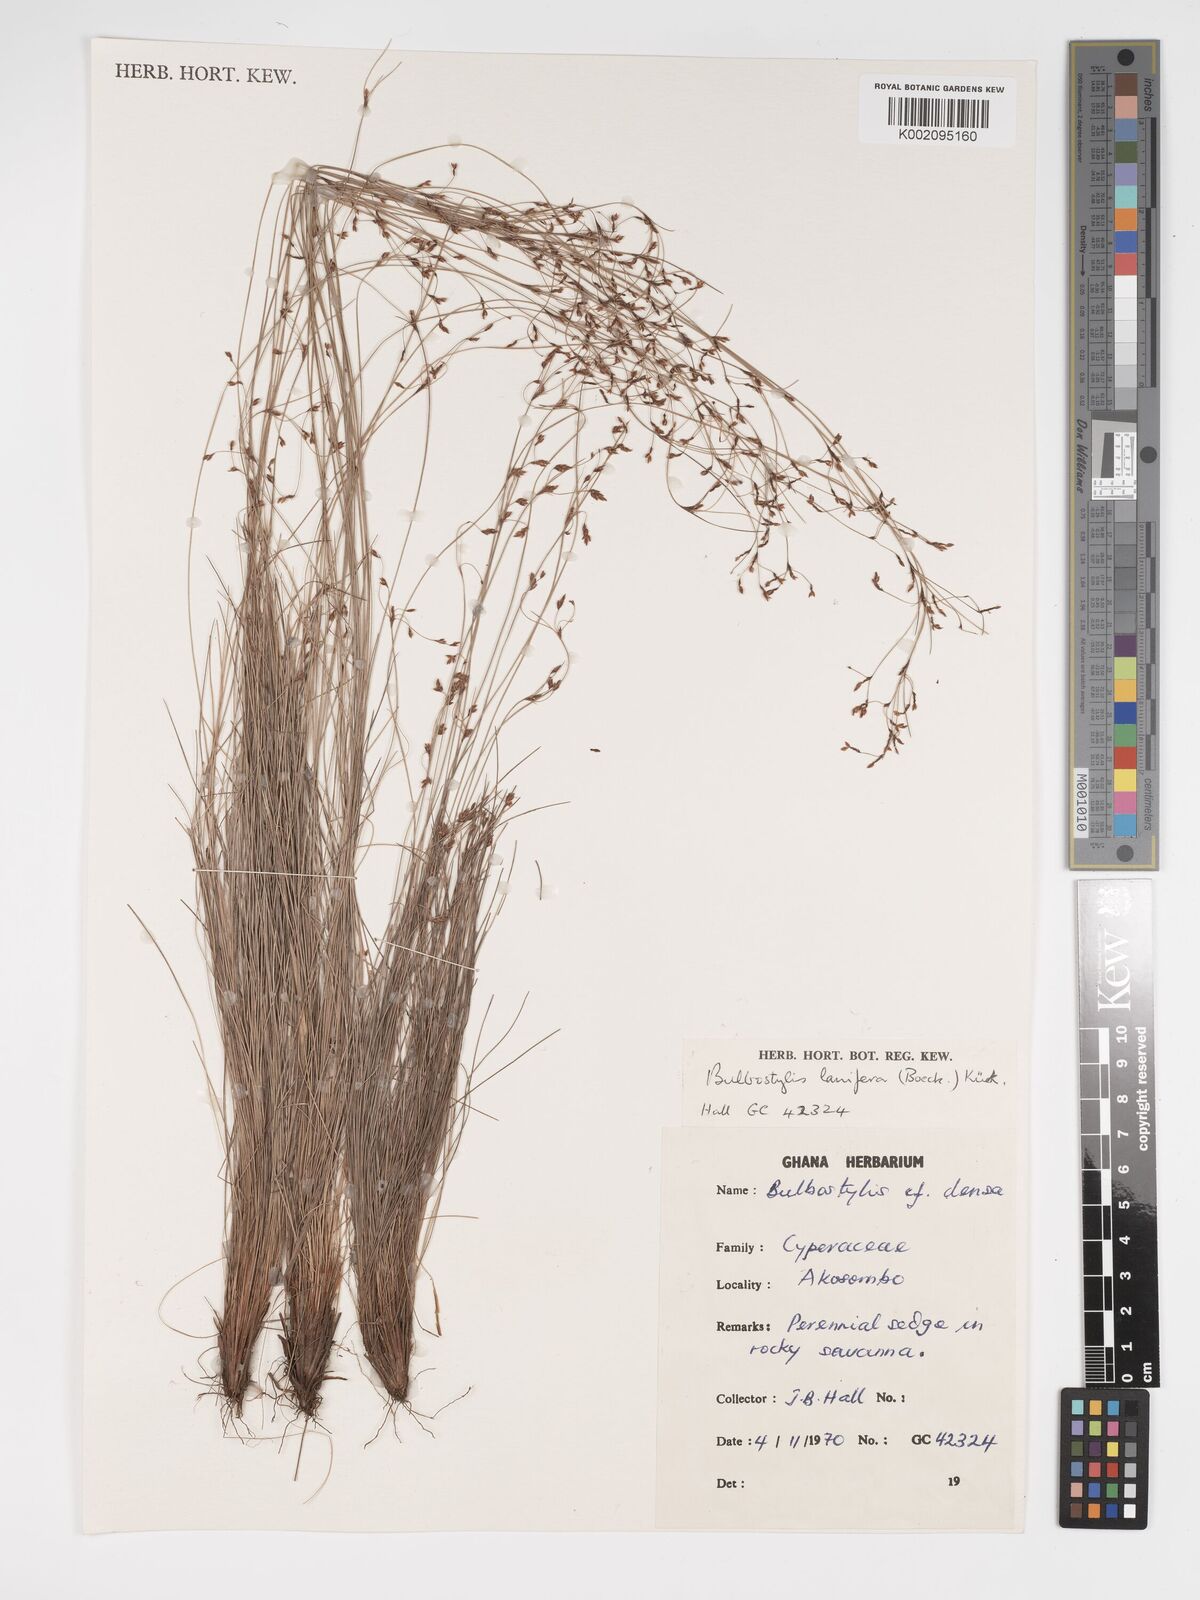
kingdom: Plantae
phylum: Tracheophyta
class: Liliopsida
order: Poales
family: Cyperaceae
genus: Bulbostylis
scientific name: Bulbostylis lanifera
